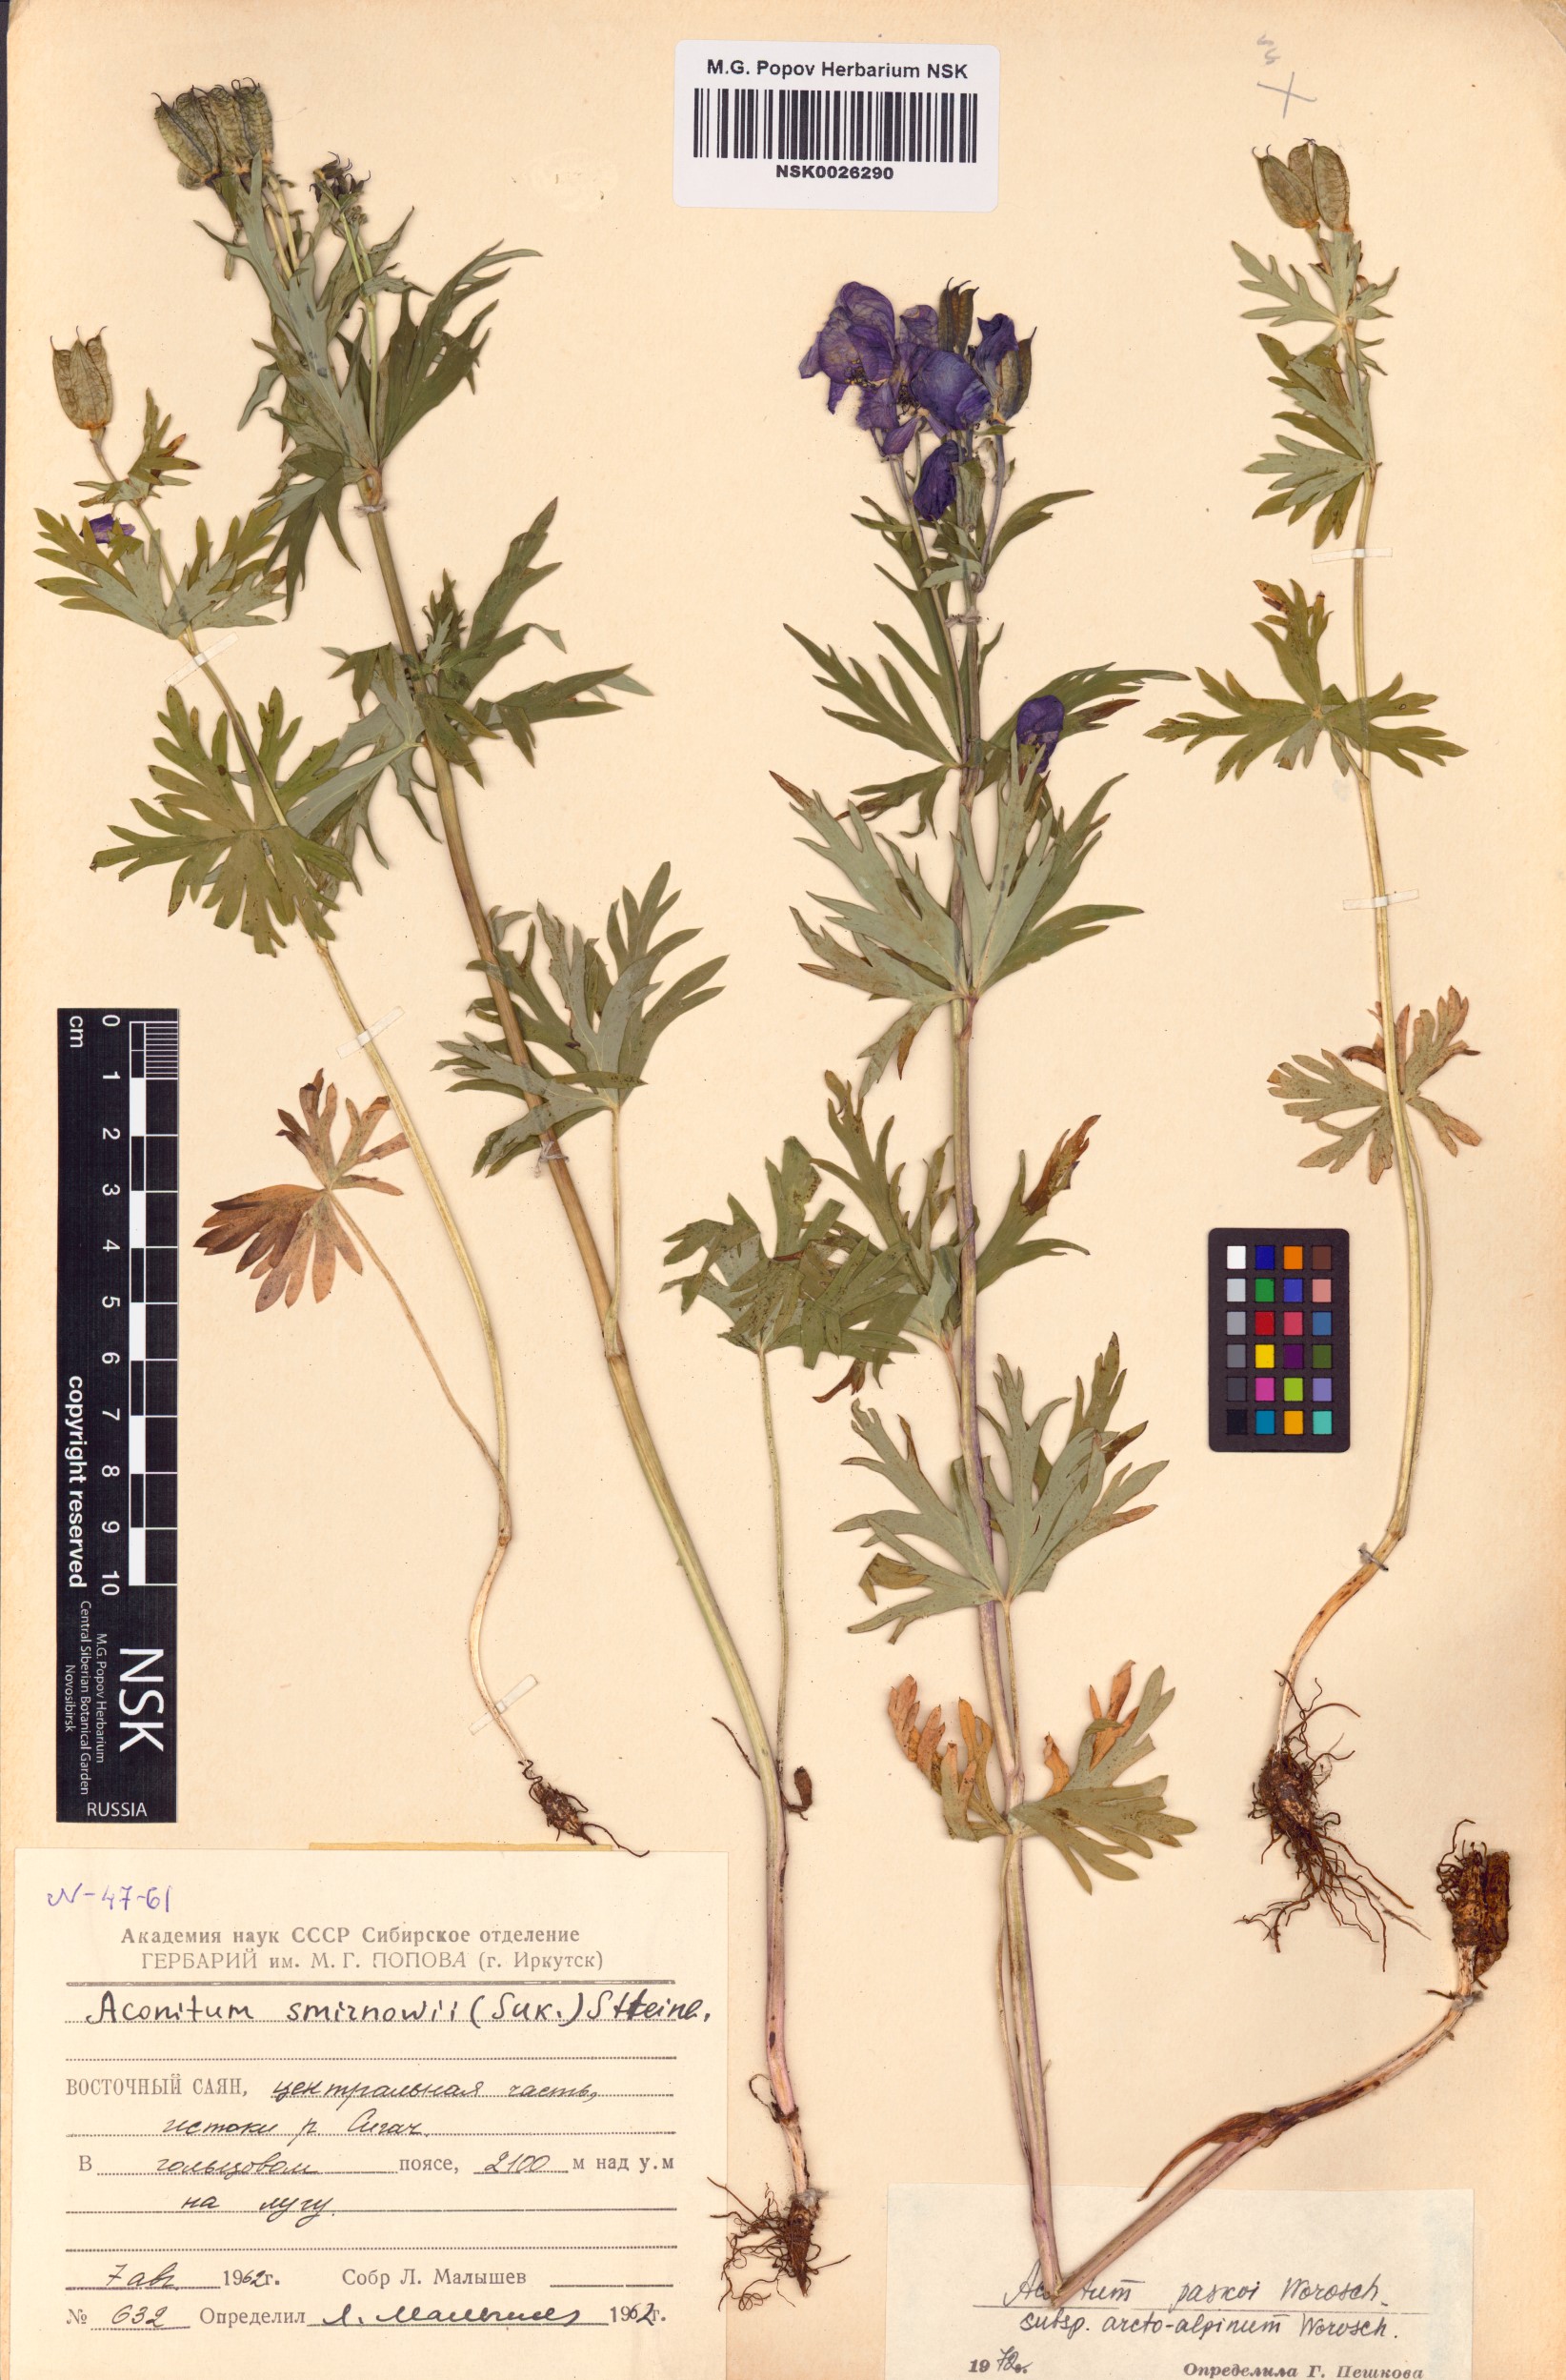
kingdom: Plantae
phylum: Tracheophyta
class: Magnoliopsida
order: Ranunculales
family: Ranunculaceae
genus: Aconitum
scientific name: Aconitum pascoi
